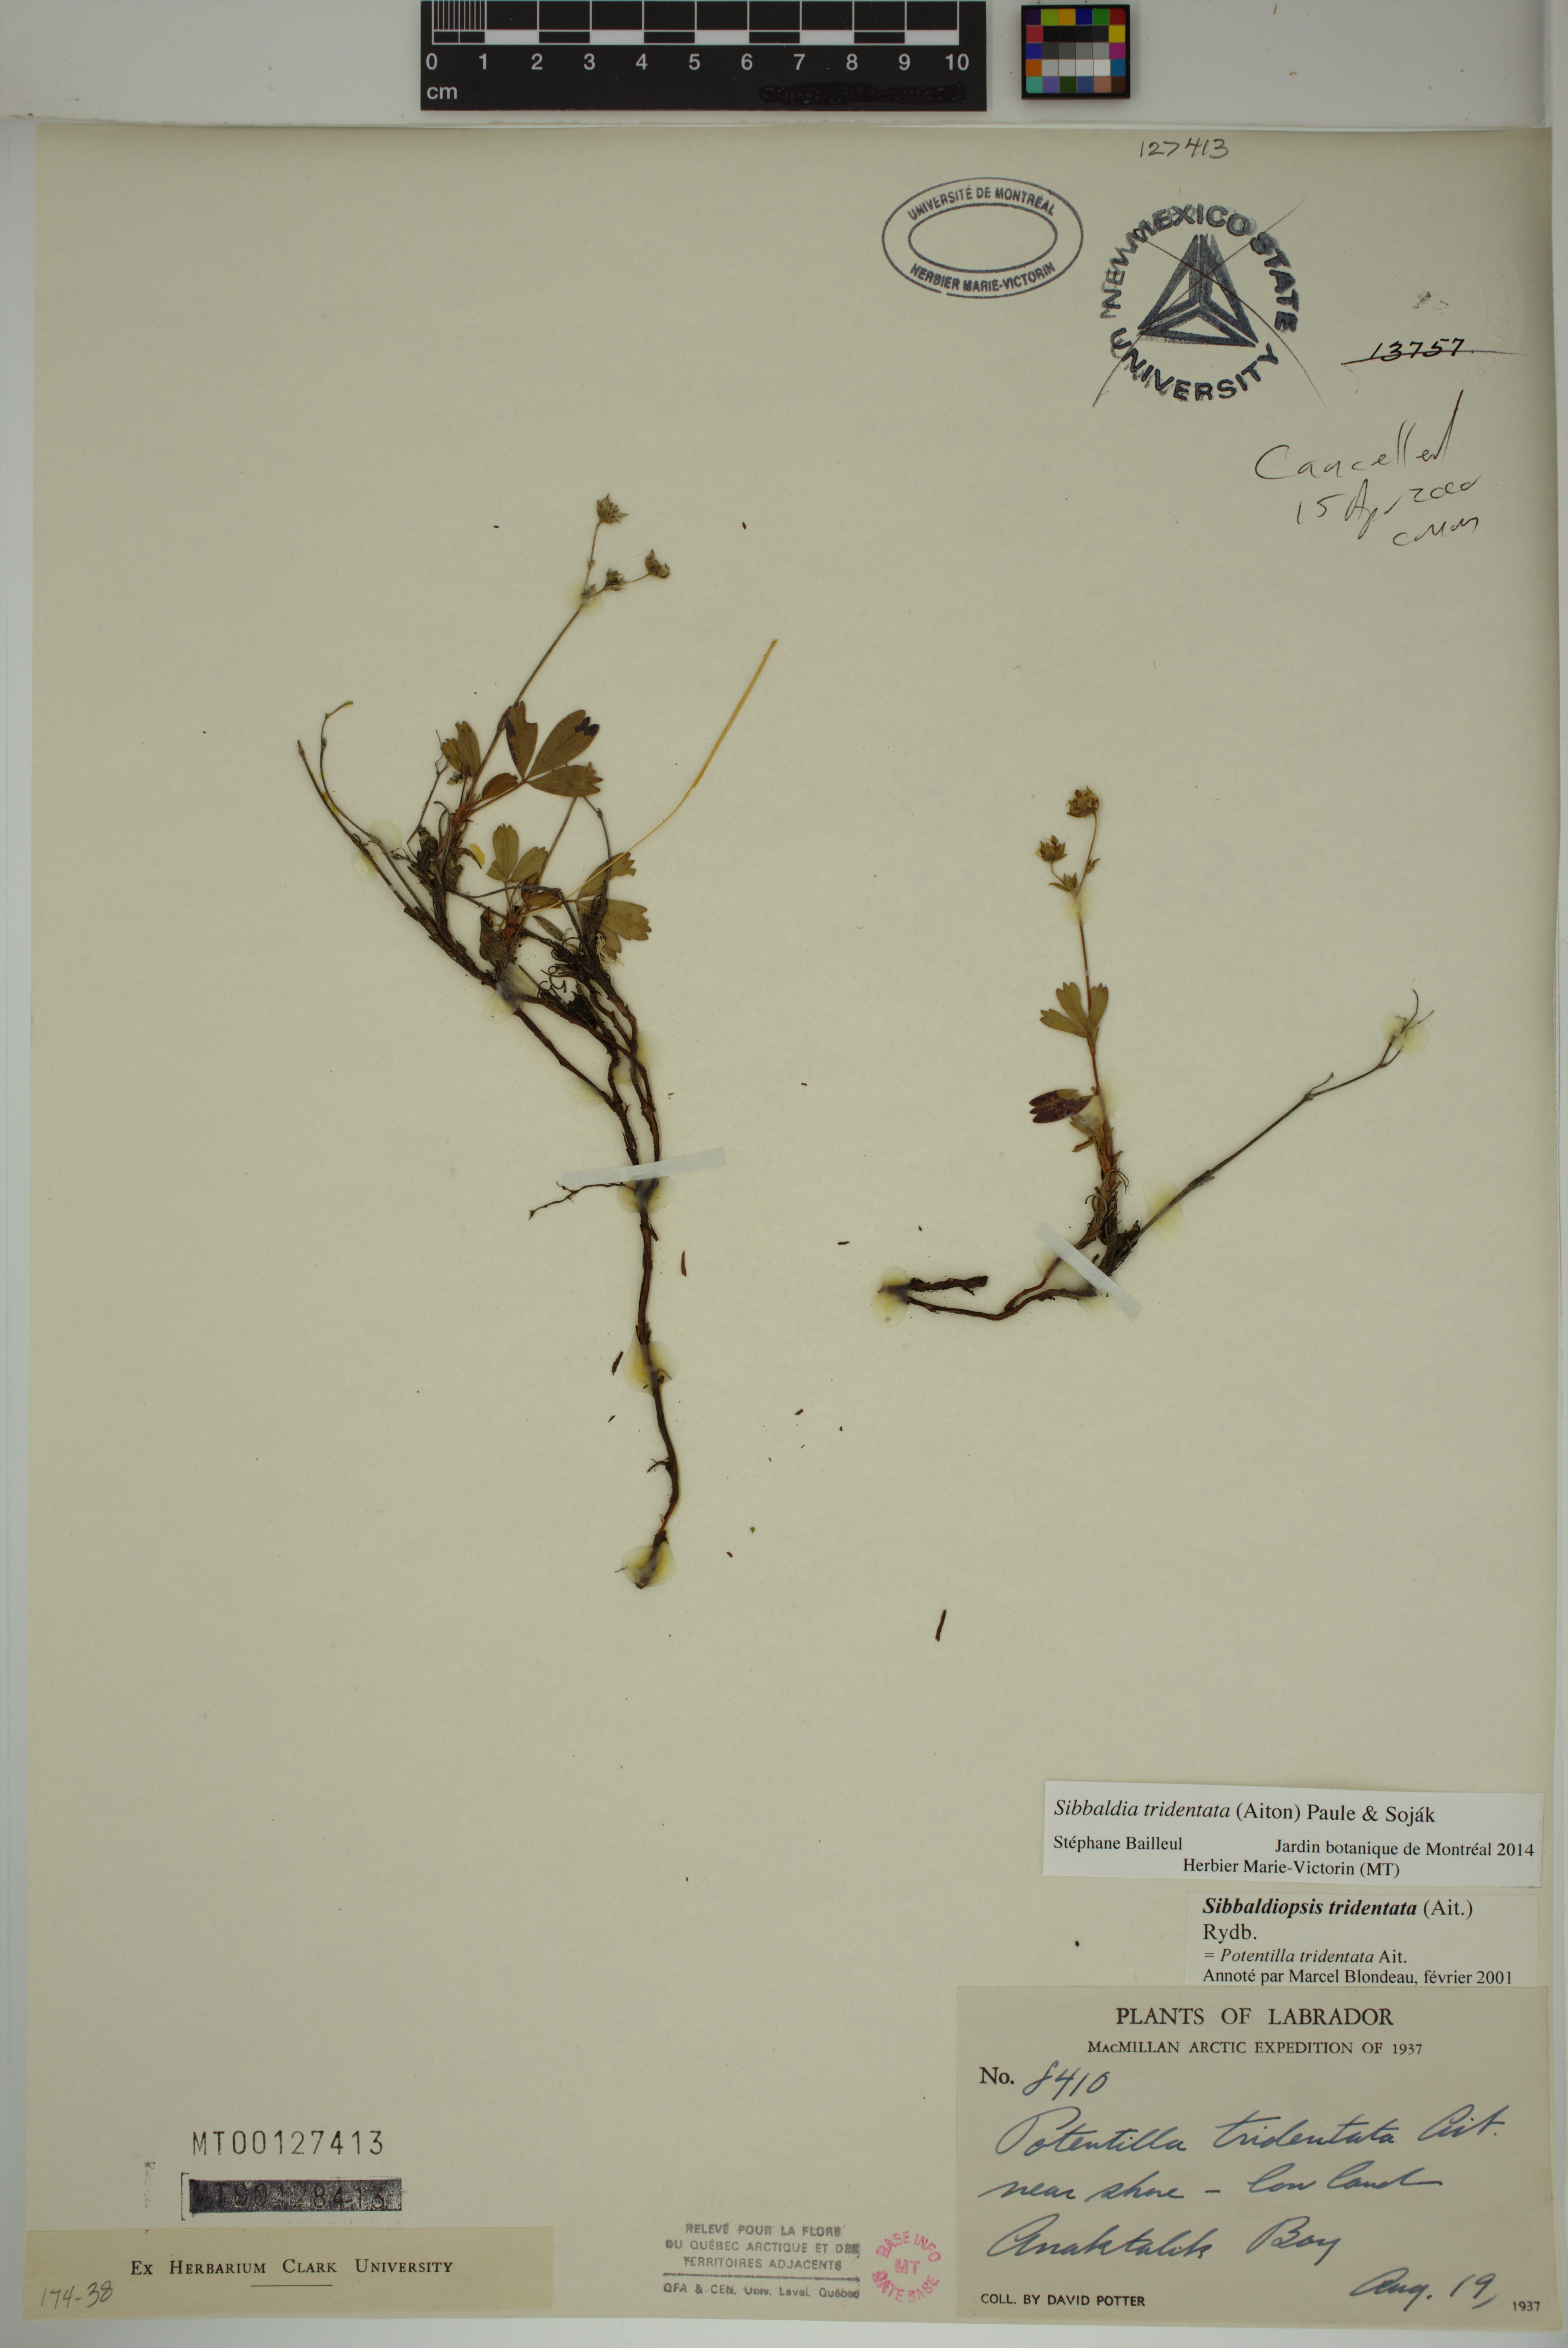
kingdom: Plantae
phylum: Tracheophyta
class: Magnoliopsida
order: Rosales
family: Rosaceae
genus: Sibbaldia
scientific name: Sibbaldia tridentata
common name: Three-toothed cinquefoil
